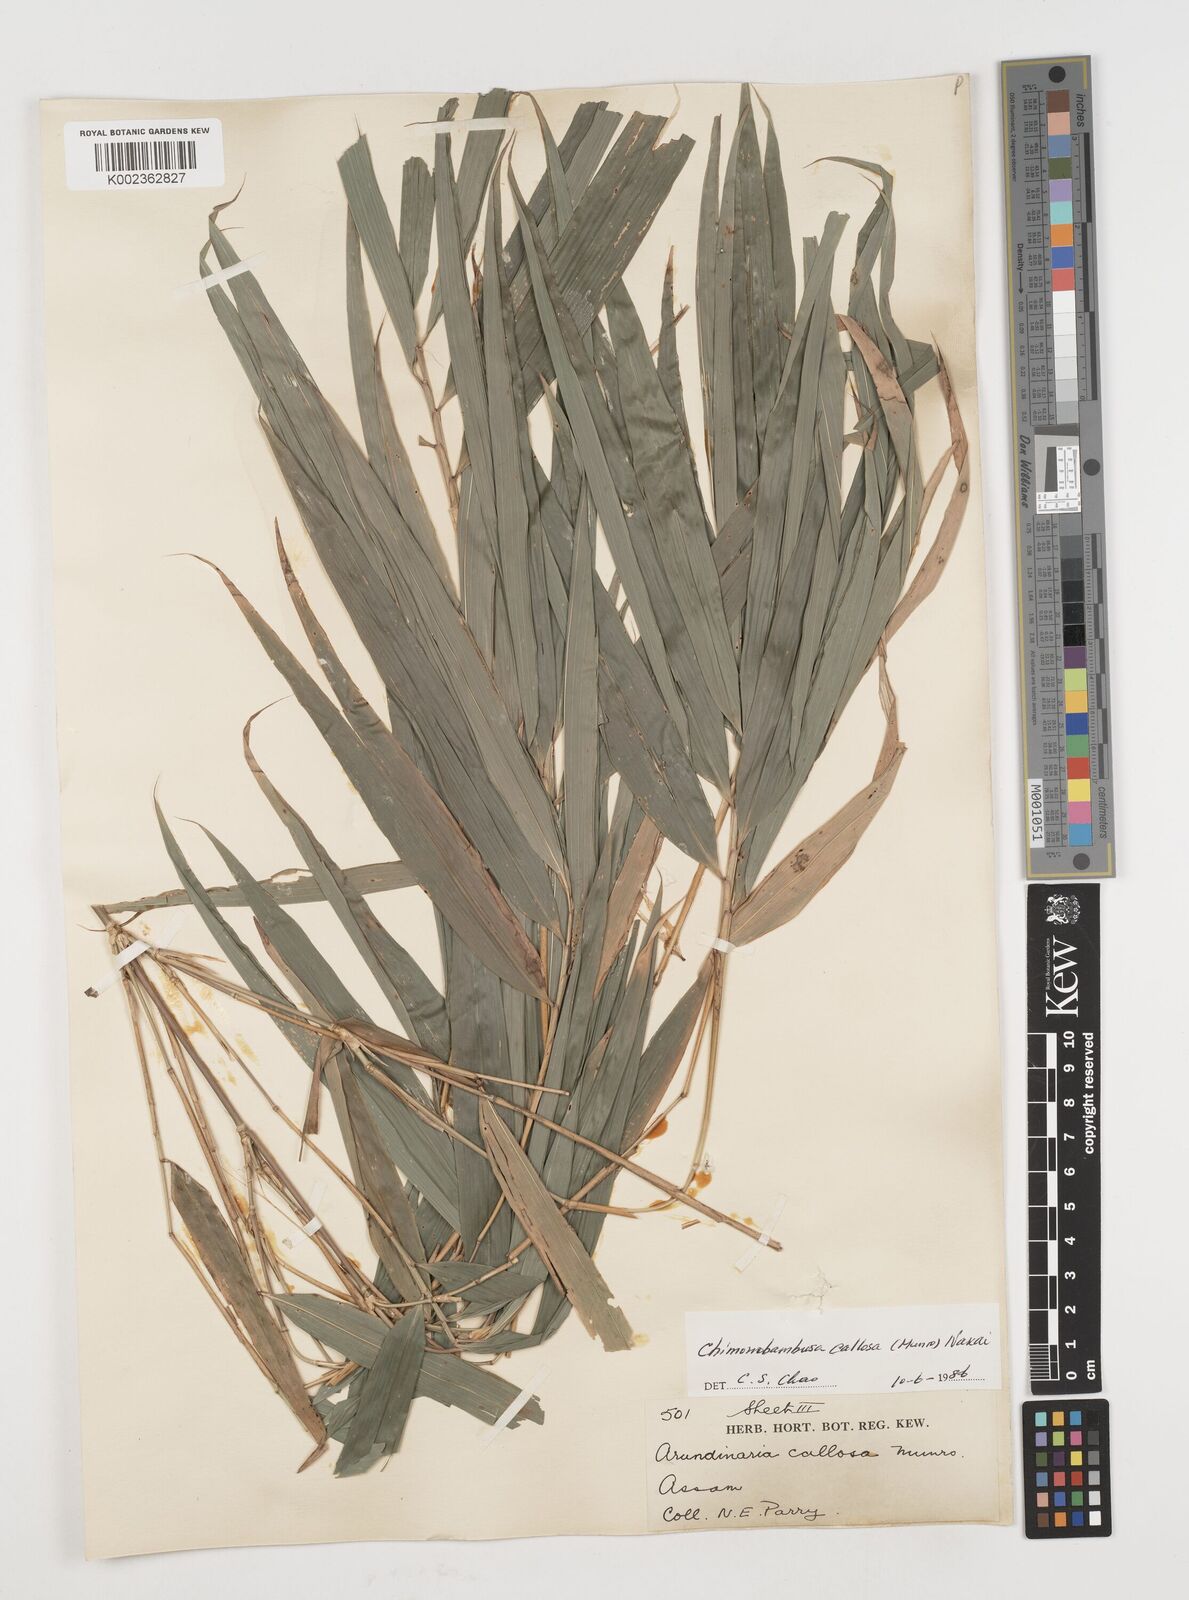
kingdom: Plantae
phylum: Tracheophyta
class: Liliopsida
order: Poales
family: Poaceae
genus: Chimonobambusa
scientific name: Chimonobambusa callosa
